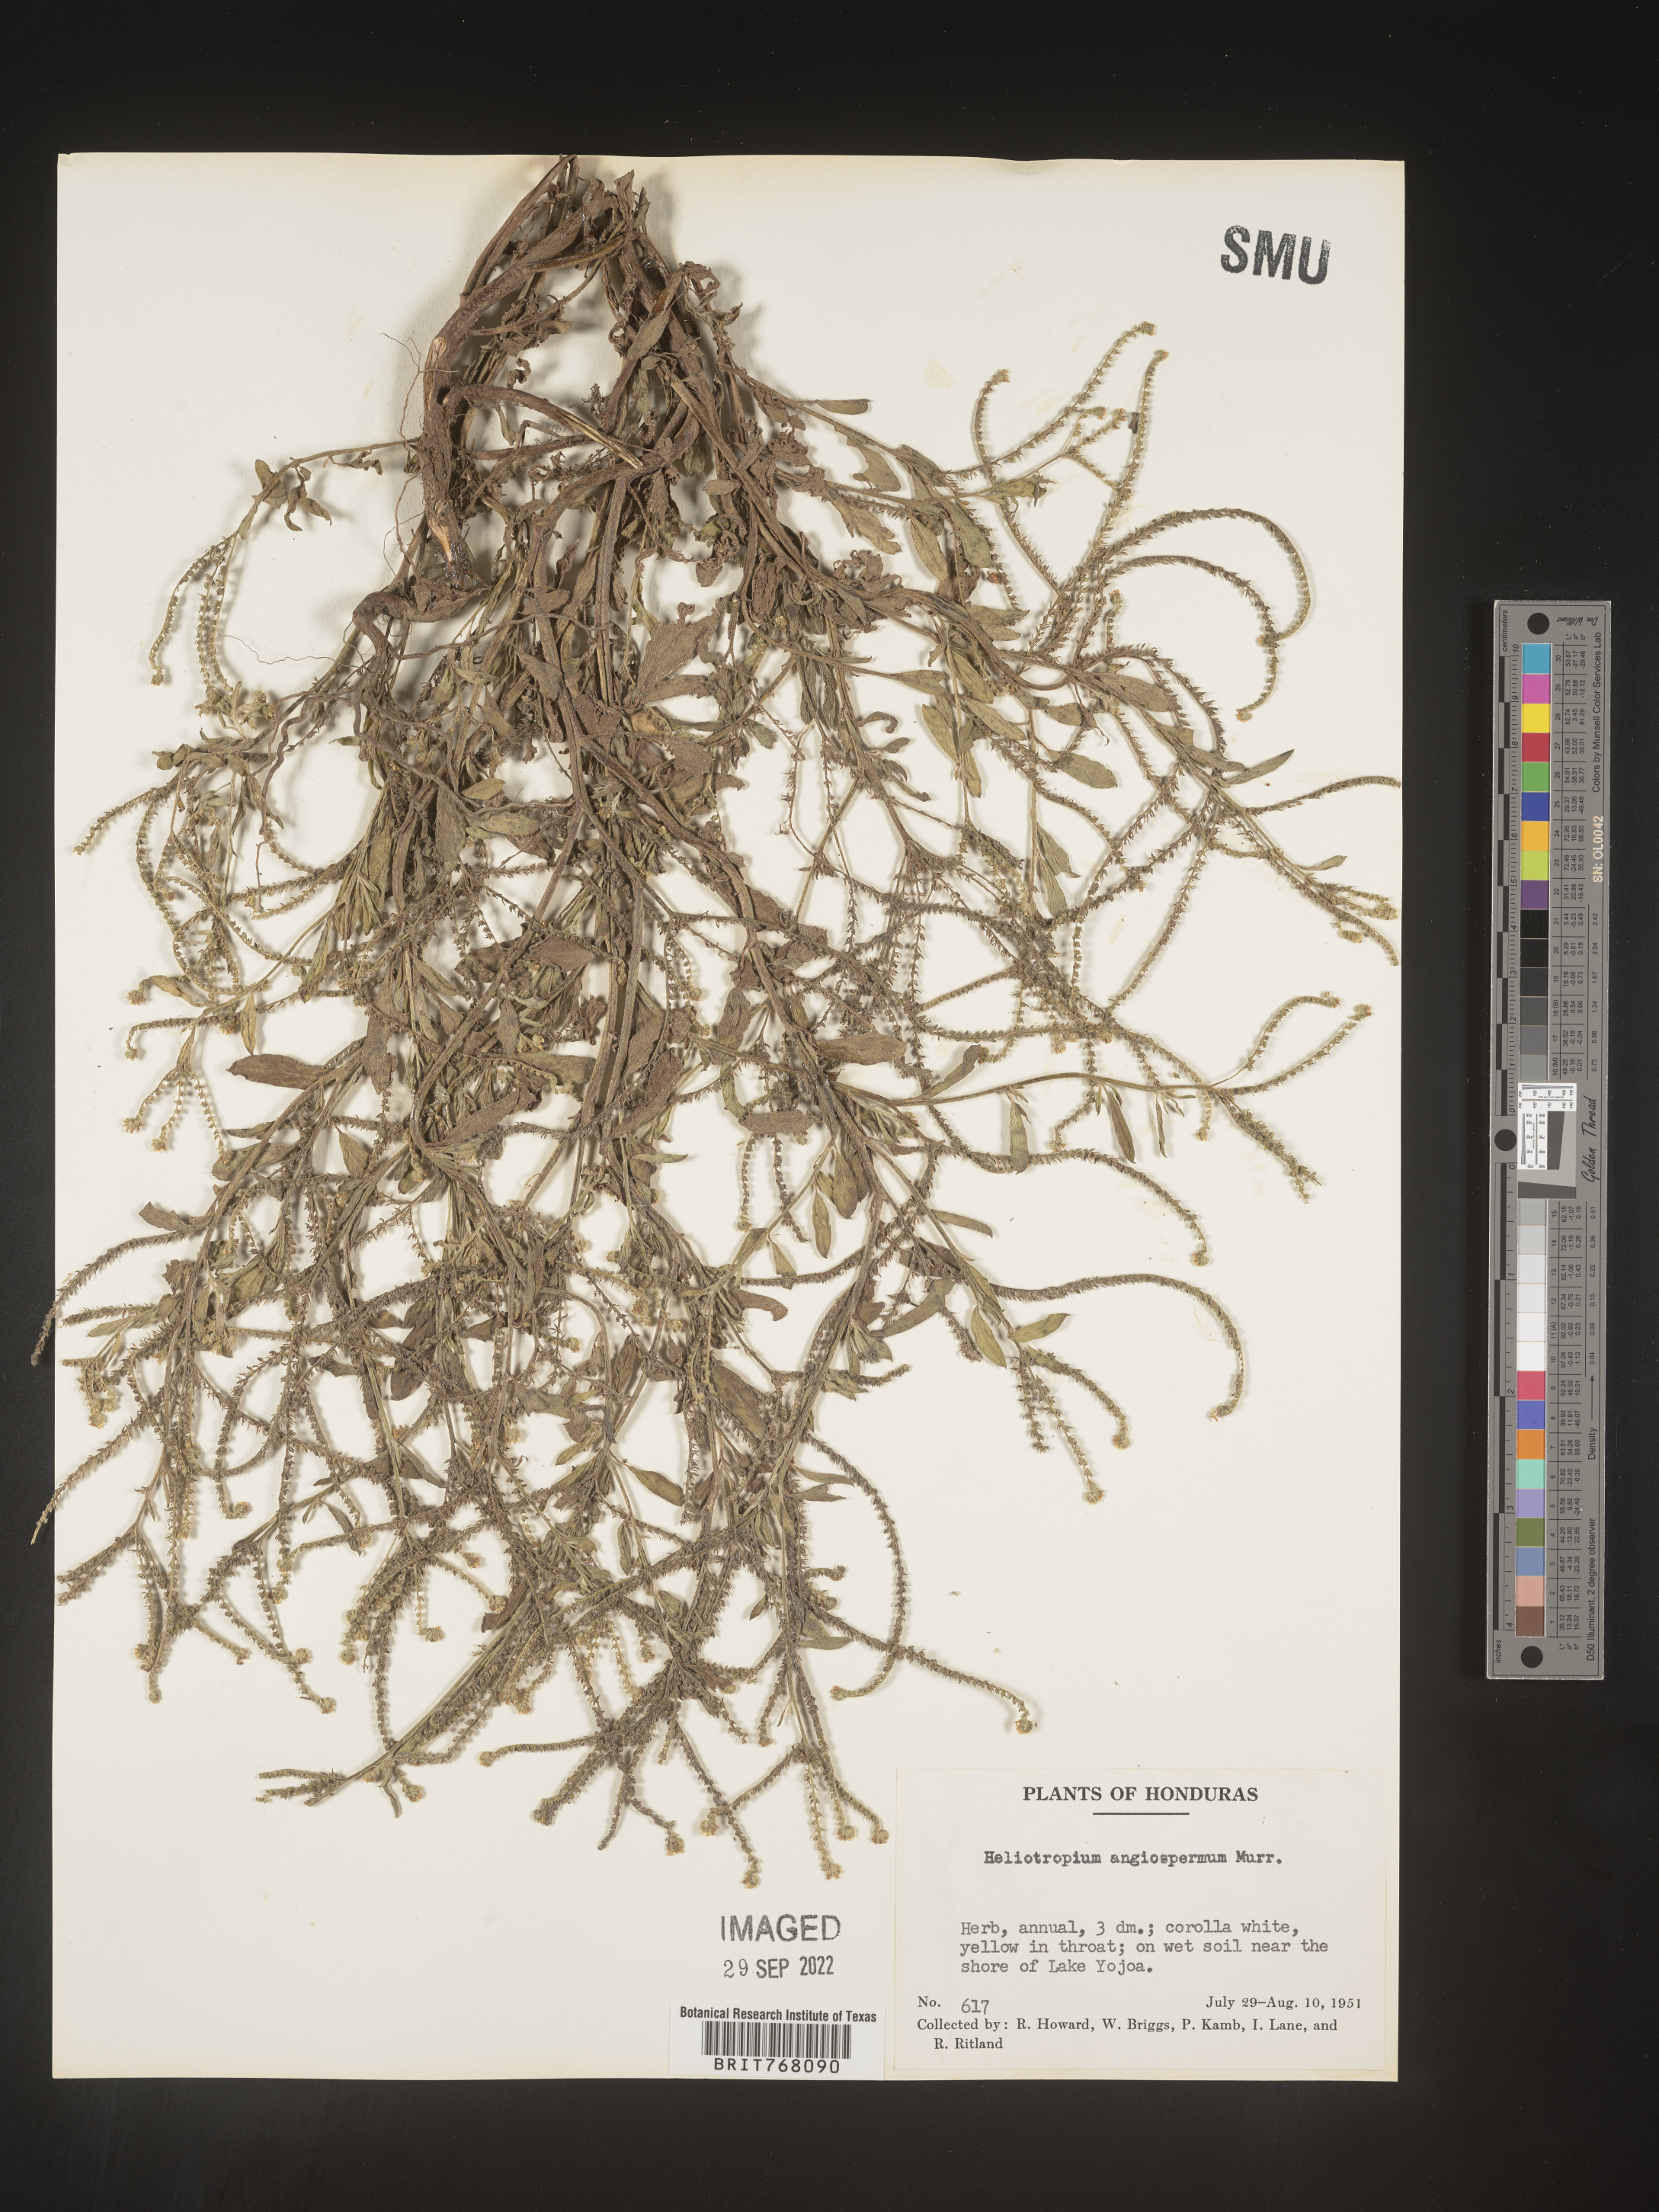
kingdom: Plantae
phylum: Tracheophyta
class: Magnoliopsida
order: Boraginales
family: Heliotropiaceae
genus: Heliotropium
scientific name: Heliotropium
